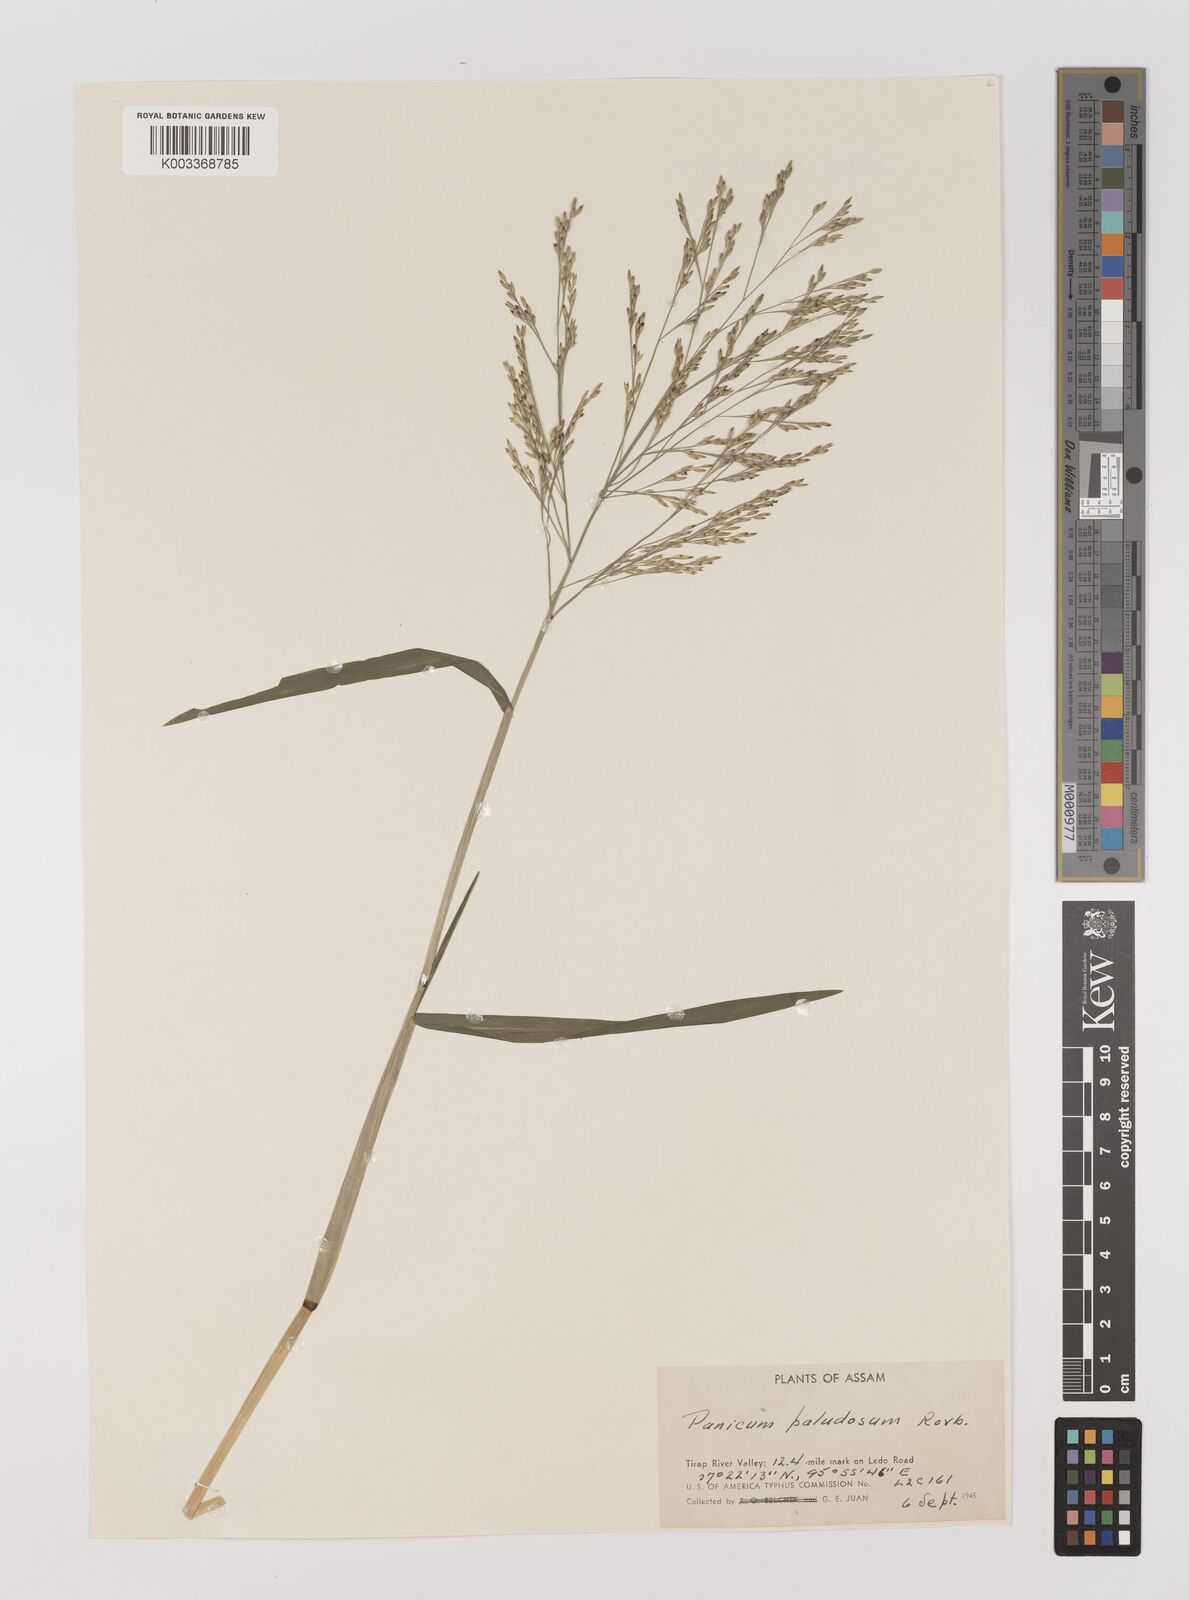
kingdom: Plantae
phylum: Tracheophyta
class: Liliopsida
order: Poales
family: Poaceae
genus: Louisiella
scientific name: Louisiella paludosa
